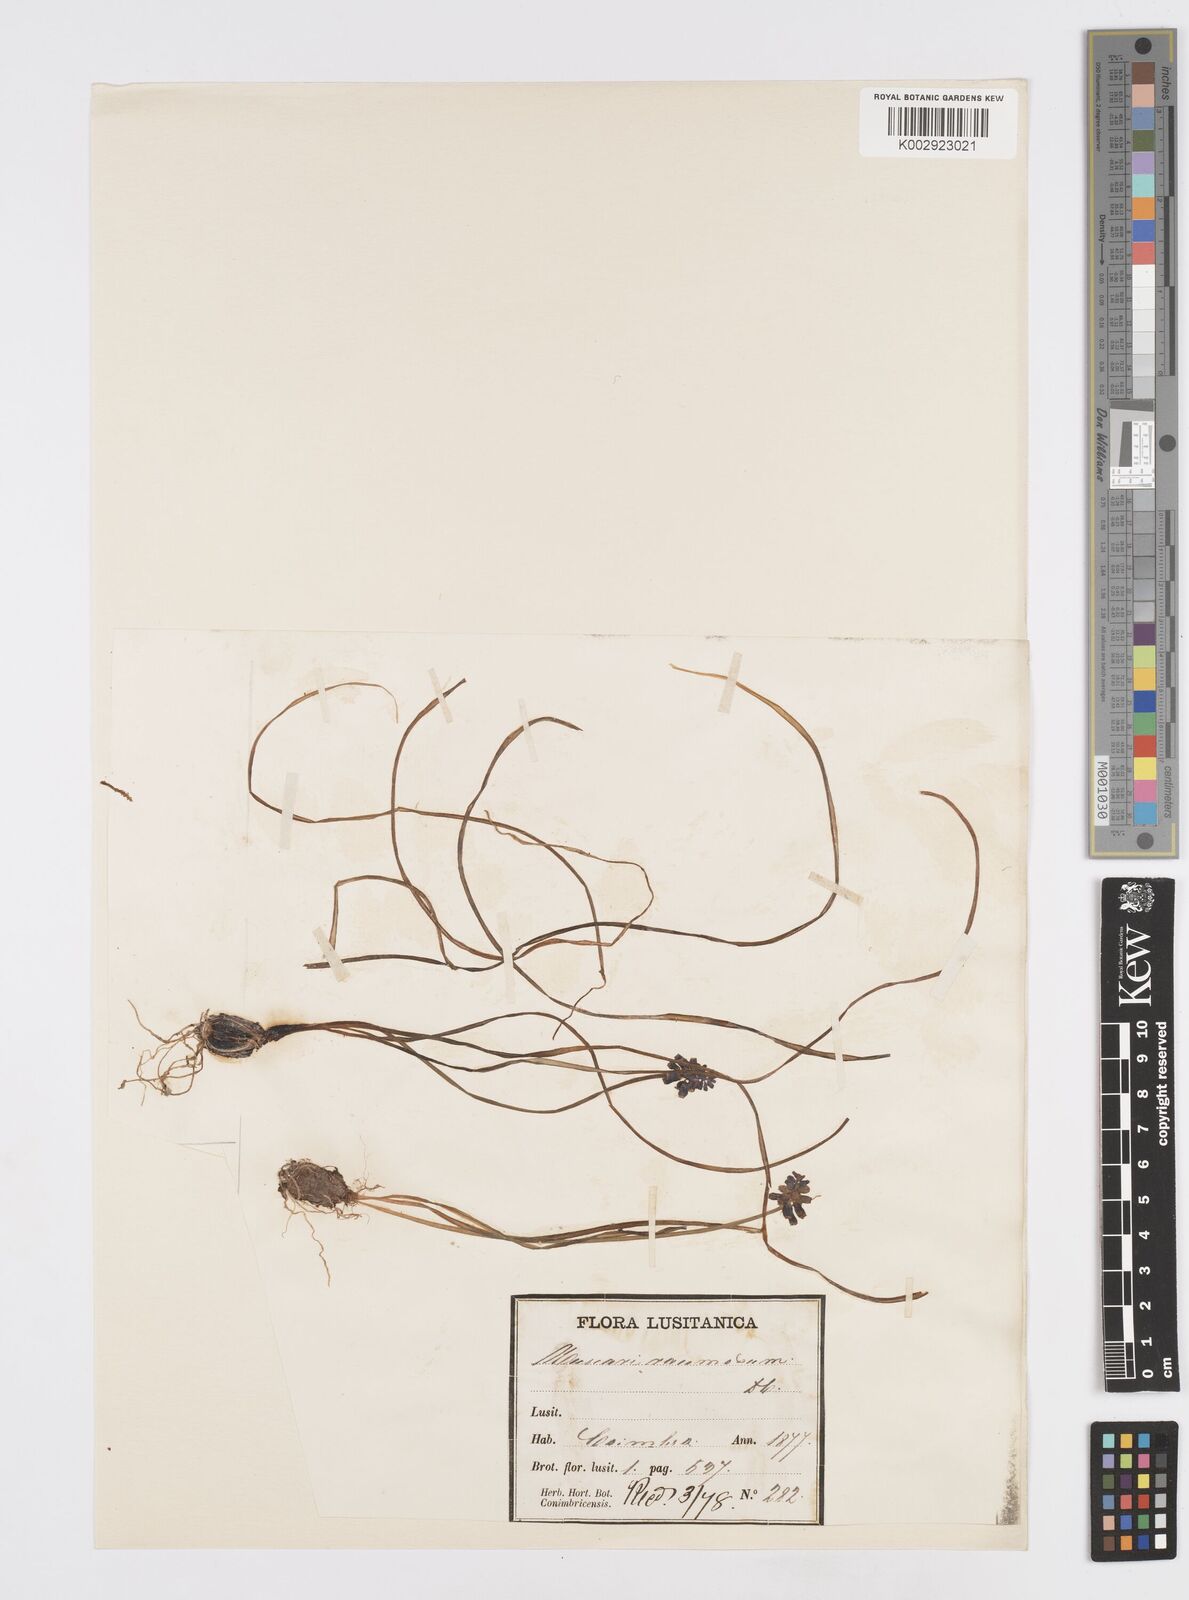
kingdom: Plantae
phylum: Tracheophyta
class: Liliopsida
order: Asparagales
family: Asparagaceae
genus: Muscarimia
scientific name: Muscarimia muscari
